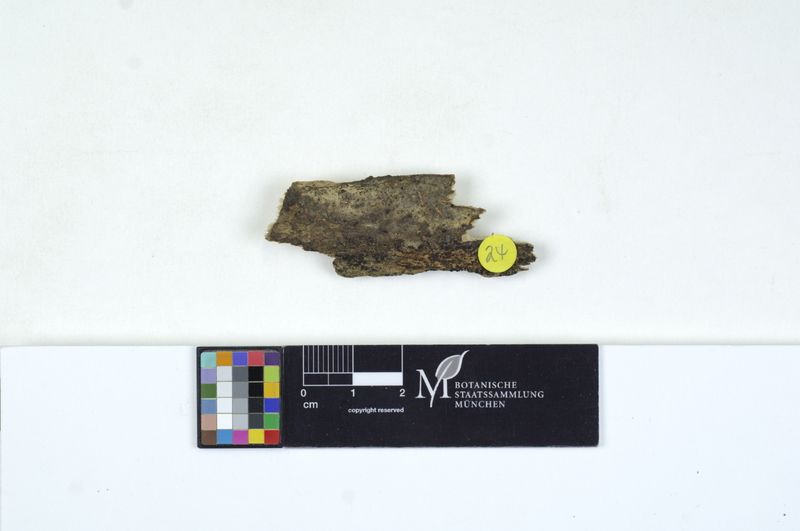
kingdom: Plantae
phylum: Tracheophyta
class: Magnoliopsida
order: Fagales
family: Fagaceae
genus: Fagus
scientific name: Fagus sylvatica
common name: Beech
